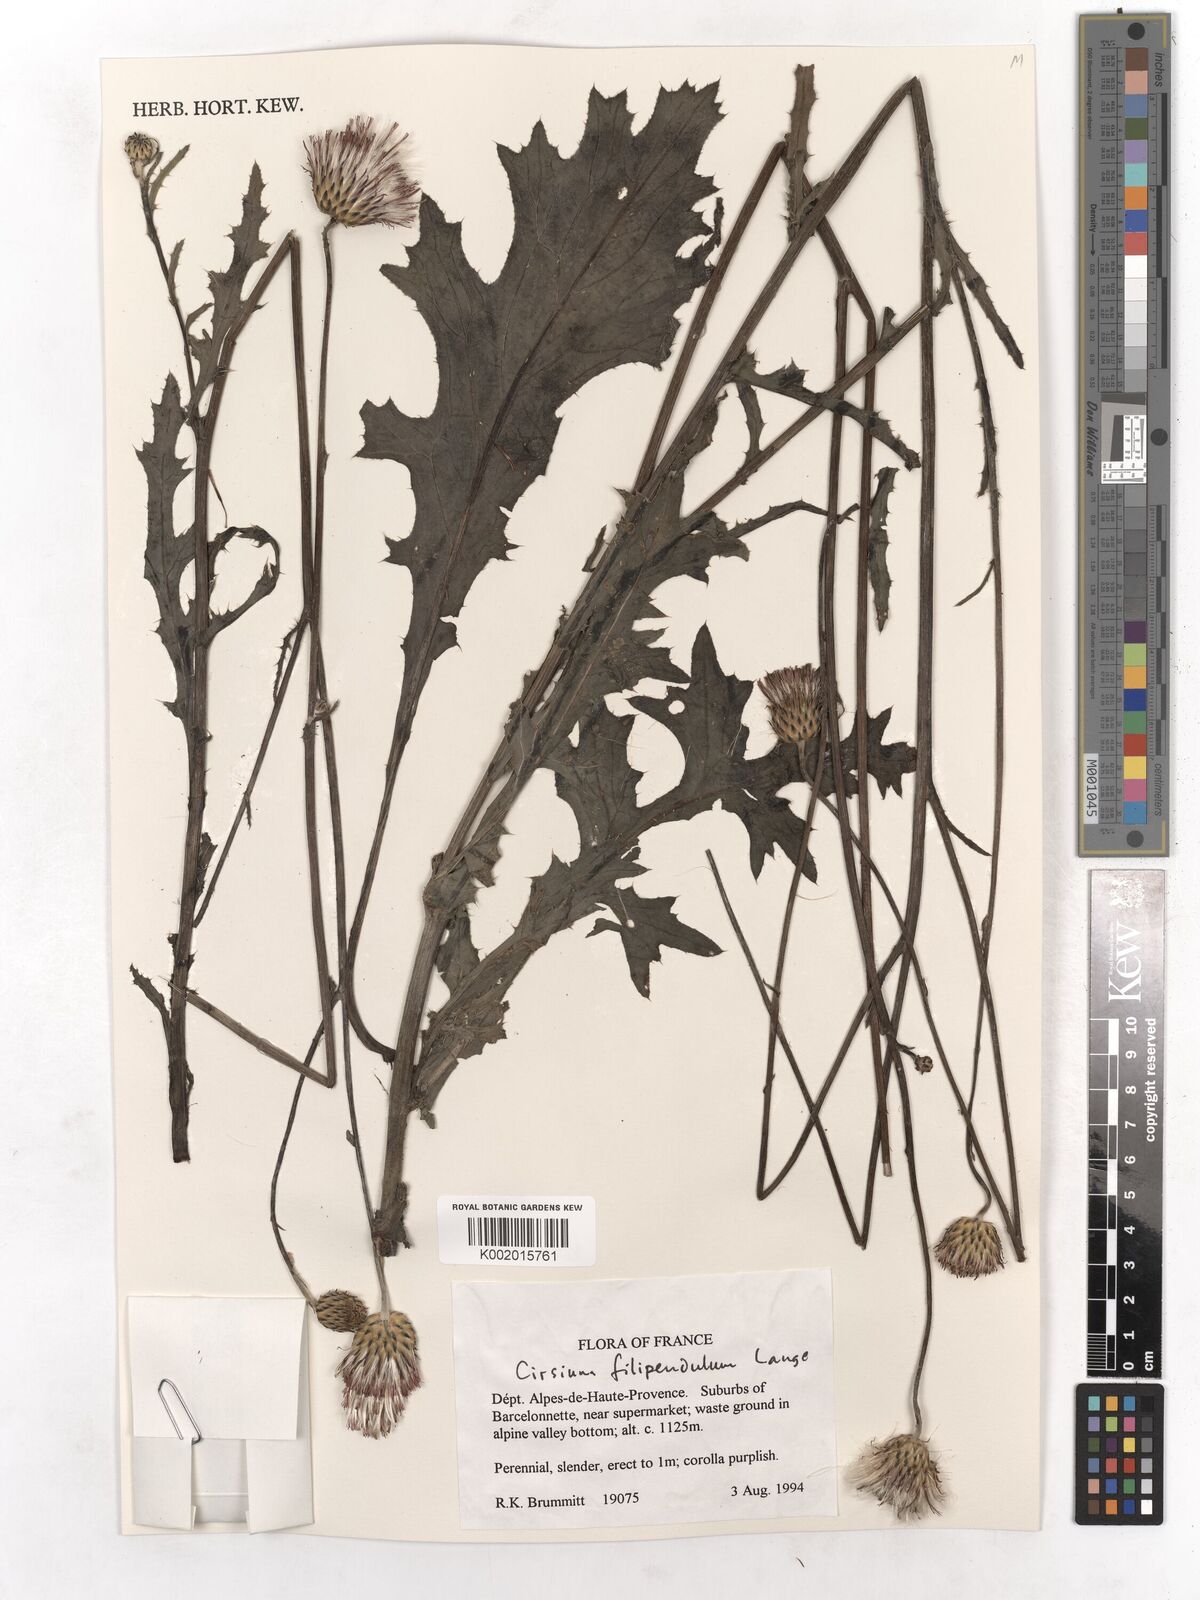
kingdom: Plantae
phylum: Tracheophyta
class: Magnoliopsida
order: Asterales
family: Asteraceae
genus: Cirsium
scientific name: Cirsium filipendulum
